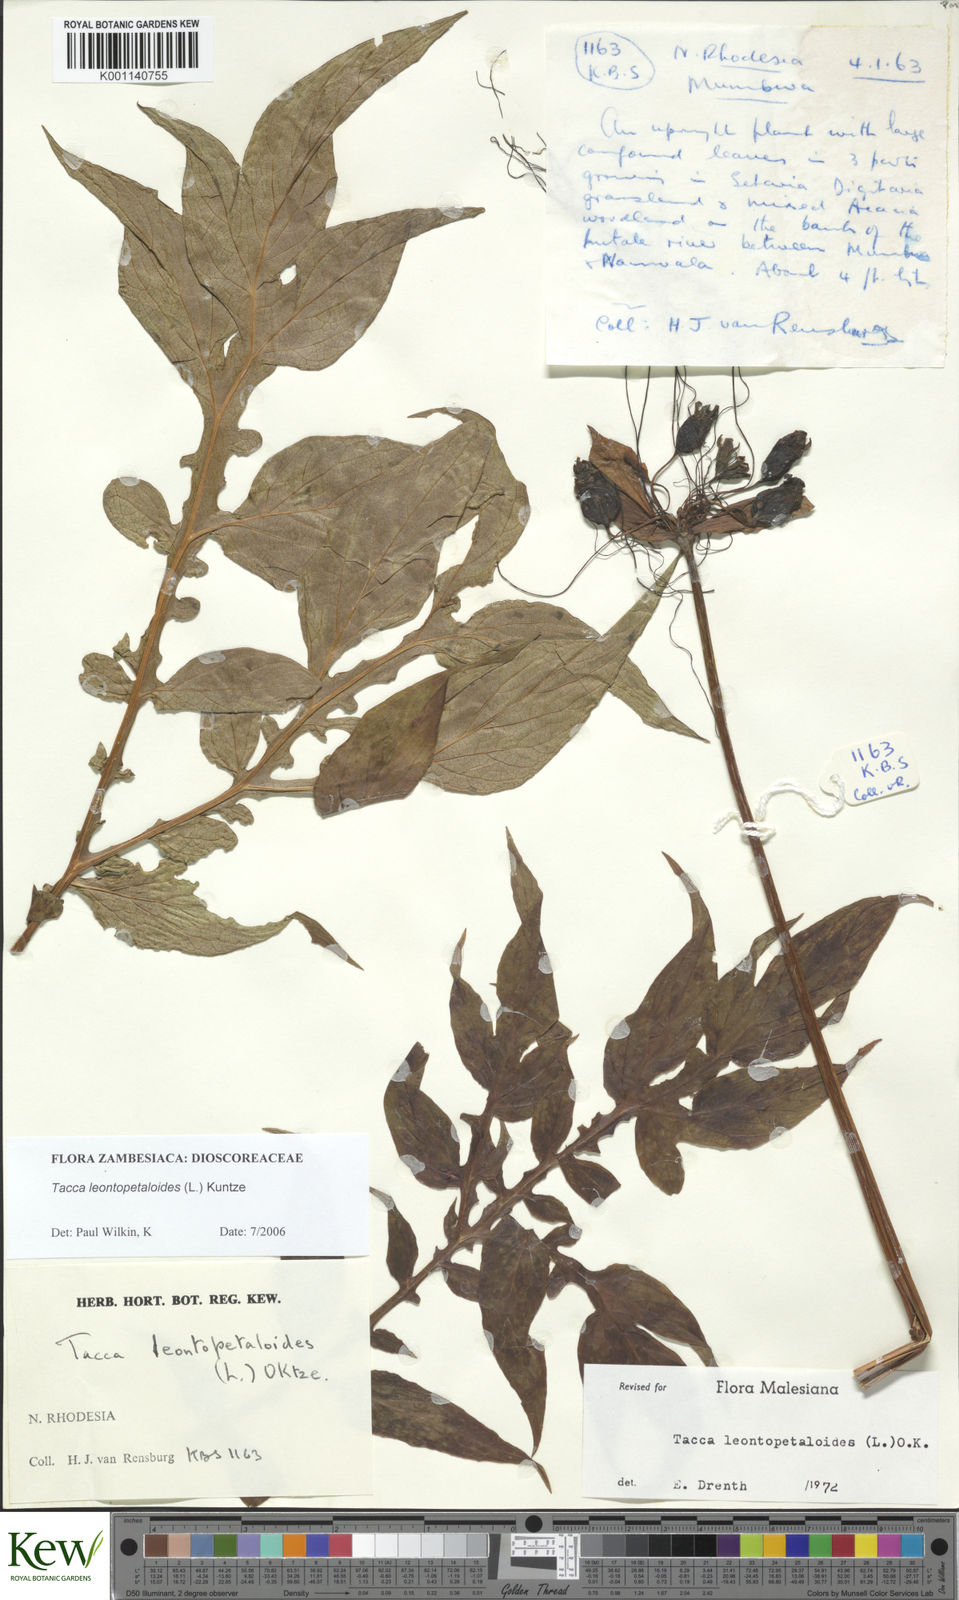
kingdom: Plantae
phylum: Tracheophyta
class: Liliopsida
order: Dioscoreales
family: Dioscoreaceae
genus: Tacca
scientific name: Tacca leontopetaloides
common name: Arrowroot
